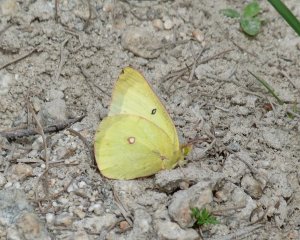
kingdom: Animalia
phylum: Arthropoda
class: Insecta
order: Lepidoptera
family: Pieridae
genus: Colias
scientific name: Colias interior
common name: Pink-edged Sulphur
